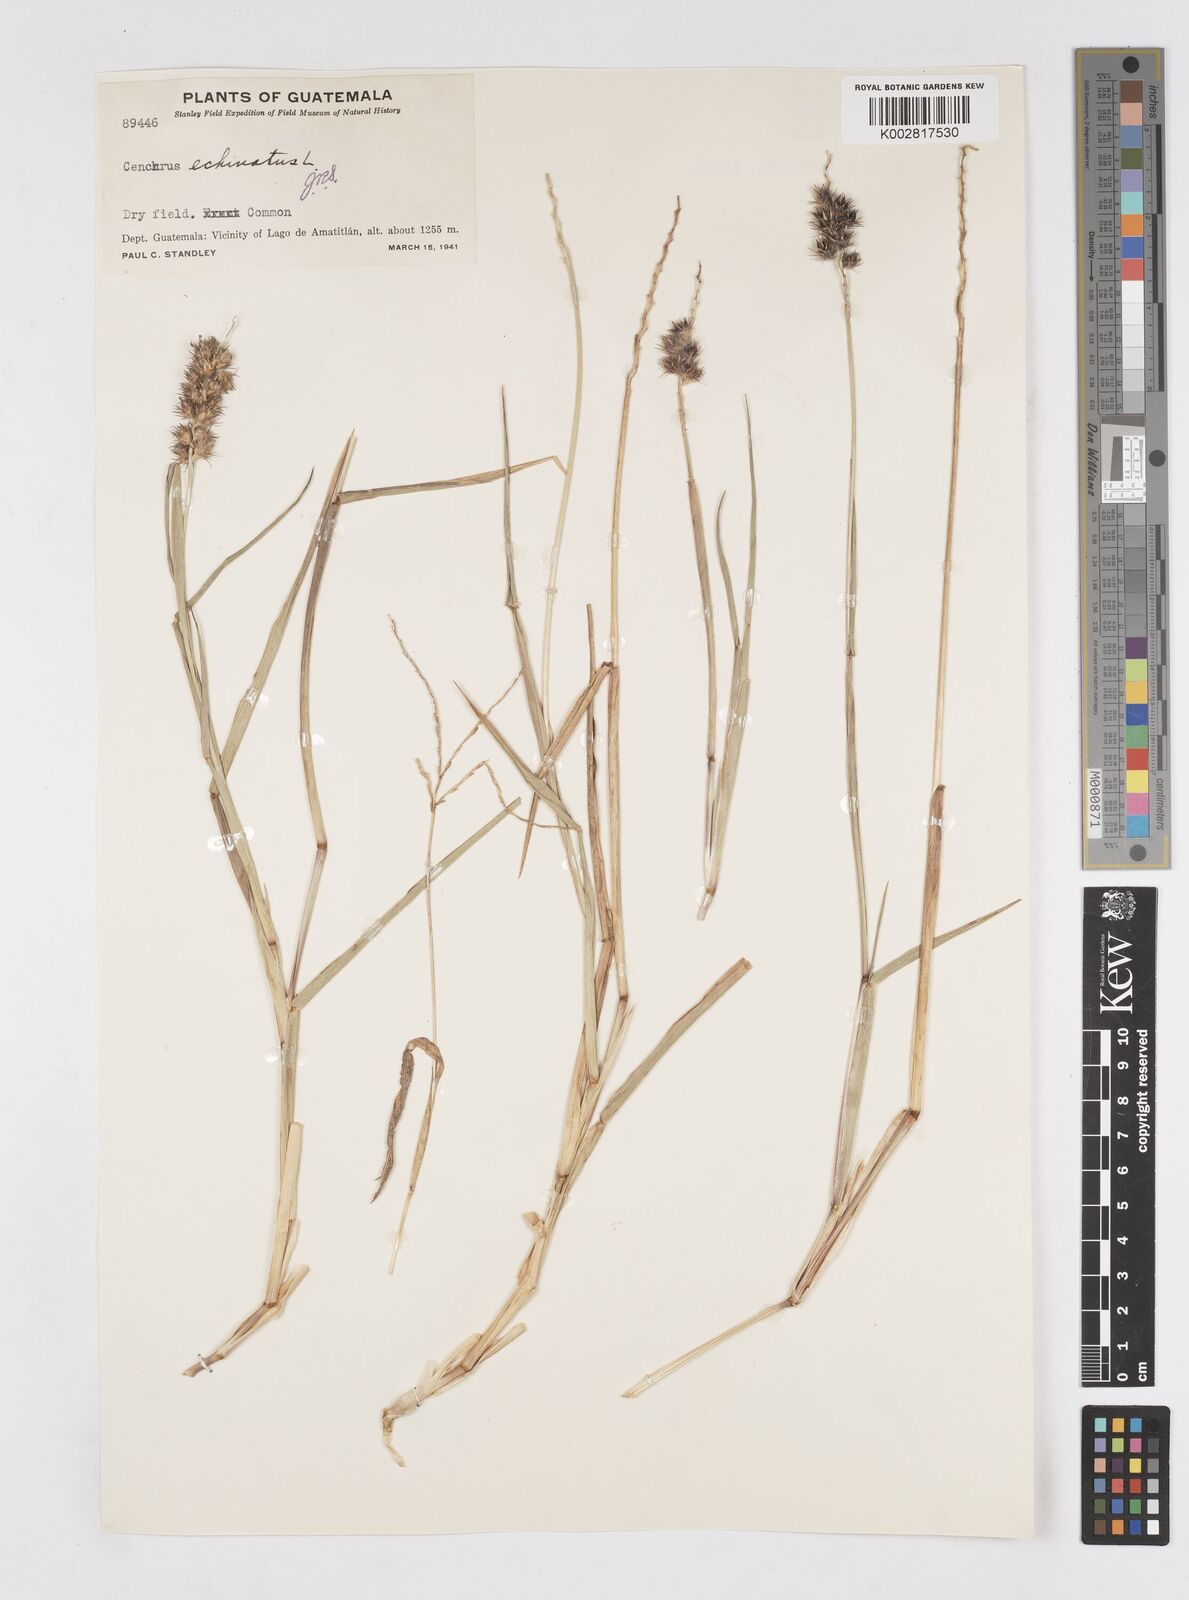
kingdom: Plantae
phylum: Tracheophyta
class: Liliopsida
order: Poales
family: Poaceae
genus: Cenchrus
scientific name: Cenchrus
